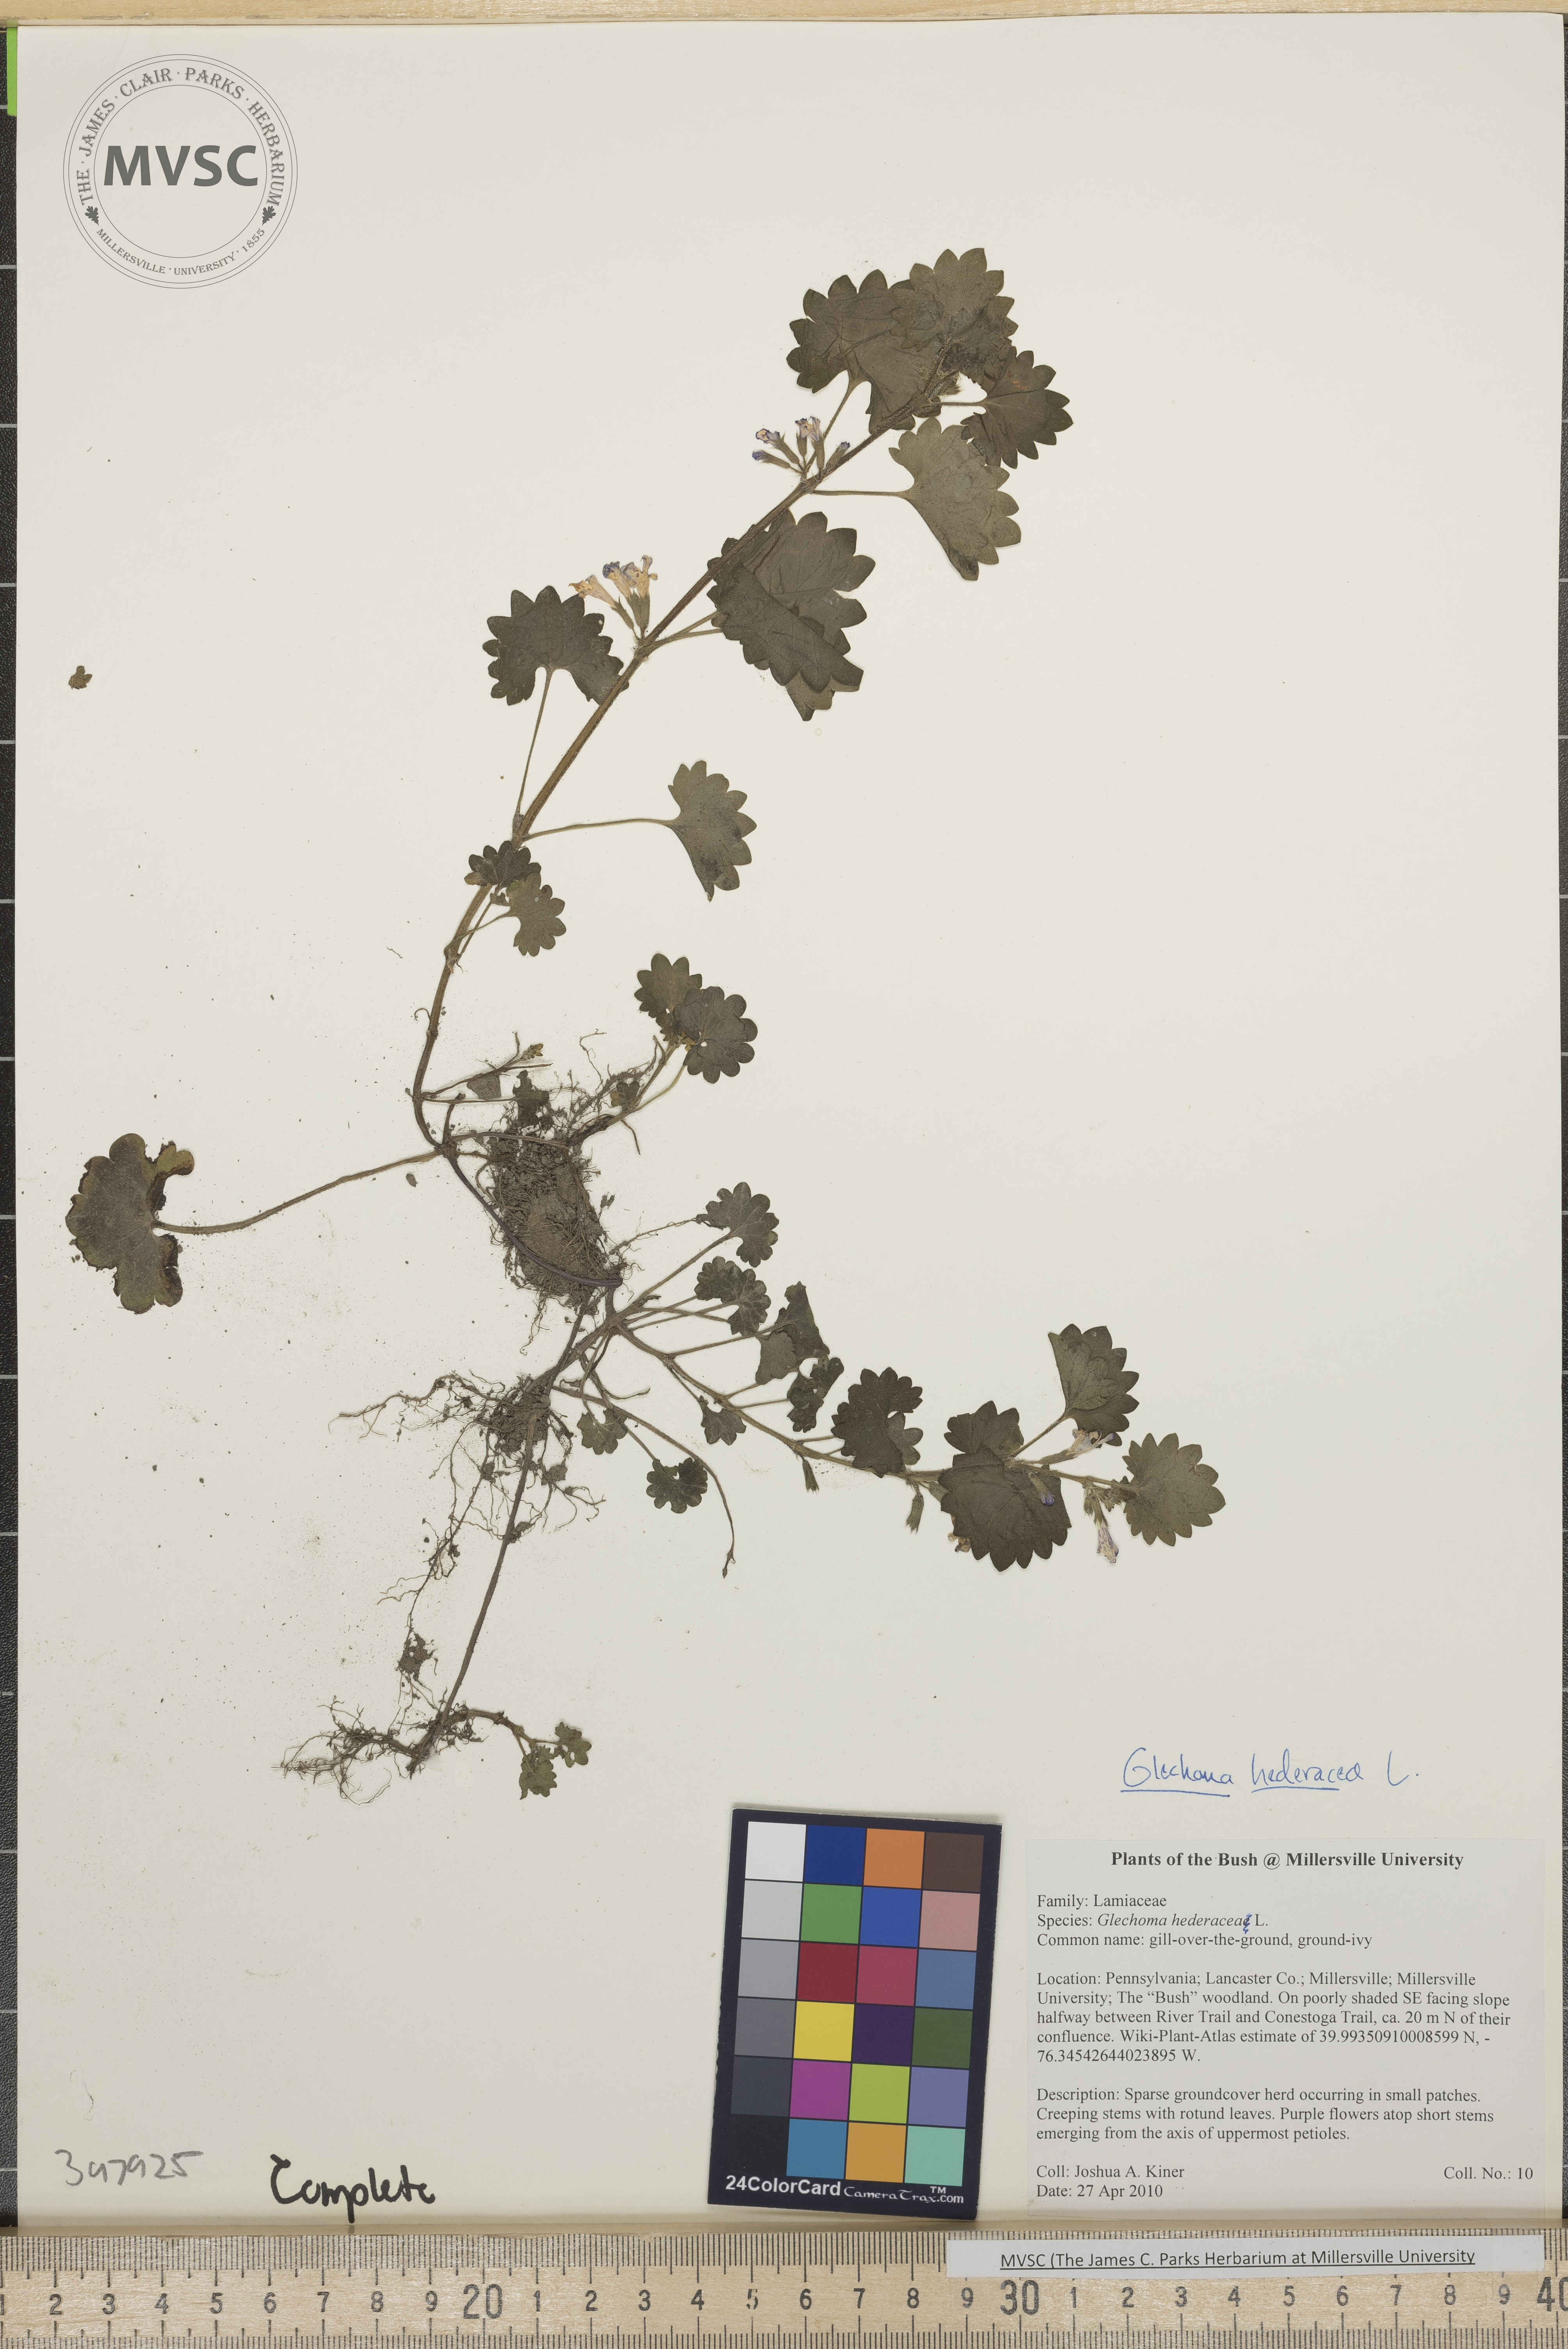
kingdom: Plantae
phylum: Tracheophyta
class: Magnoliopsida
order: Lamiales
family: Lamiaceae
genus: Glechoma
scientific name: Glechoma hederacea
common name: Gill-over-the-ground
